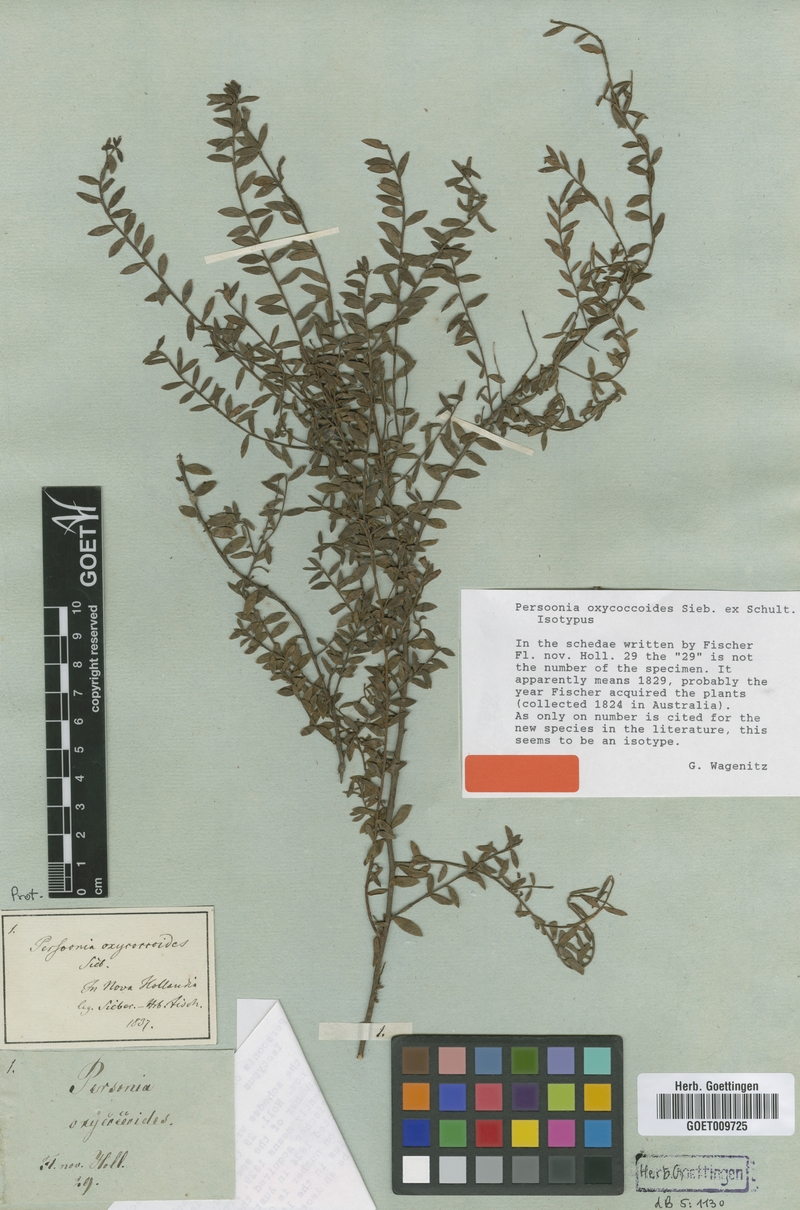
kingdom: Plantae
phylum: Tracheophyta
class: Magnoliopsida
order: Proteales
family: Proteaceae
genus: Persoonia
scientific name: Persoonia oxycoccoides
